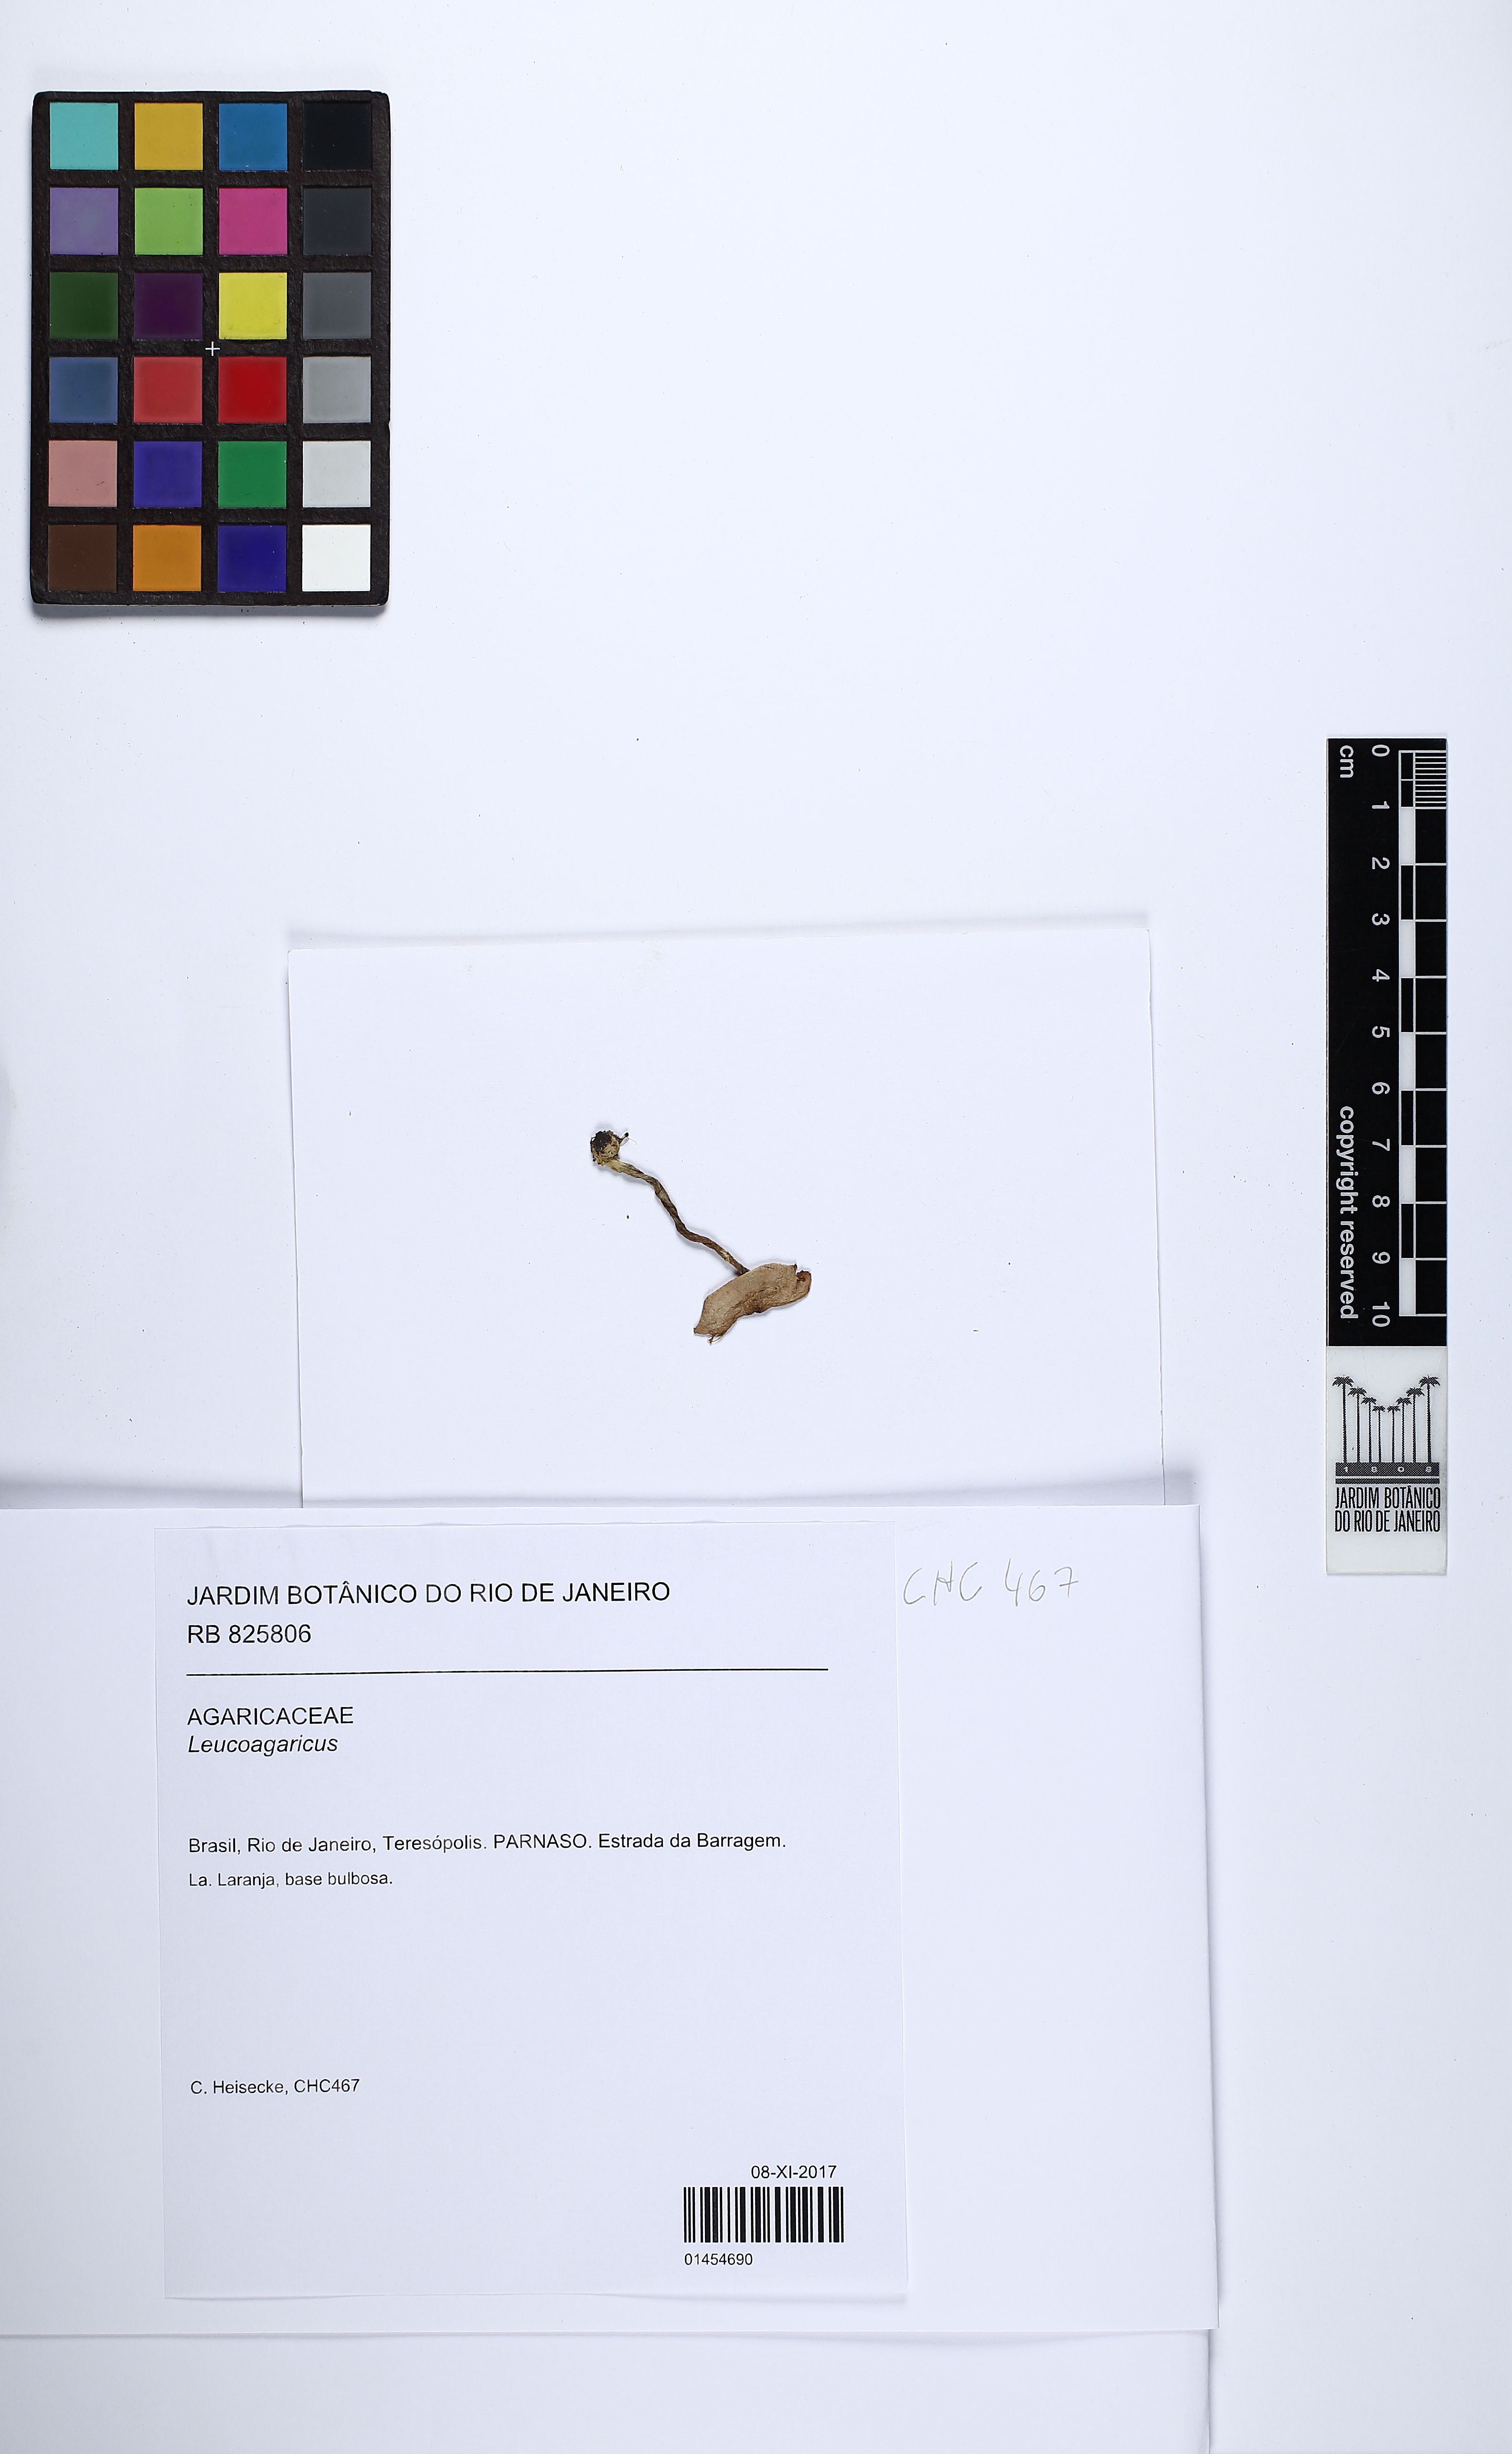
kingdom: Fungi
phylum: Basidiomycota
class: Agaricomycetes
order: Agaricales
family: Agaricaceae
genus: Leucoagaricus
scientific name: Leucoagaricus
